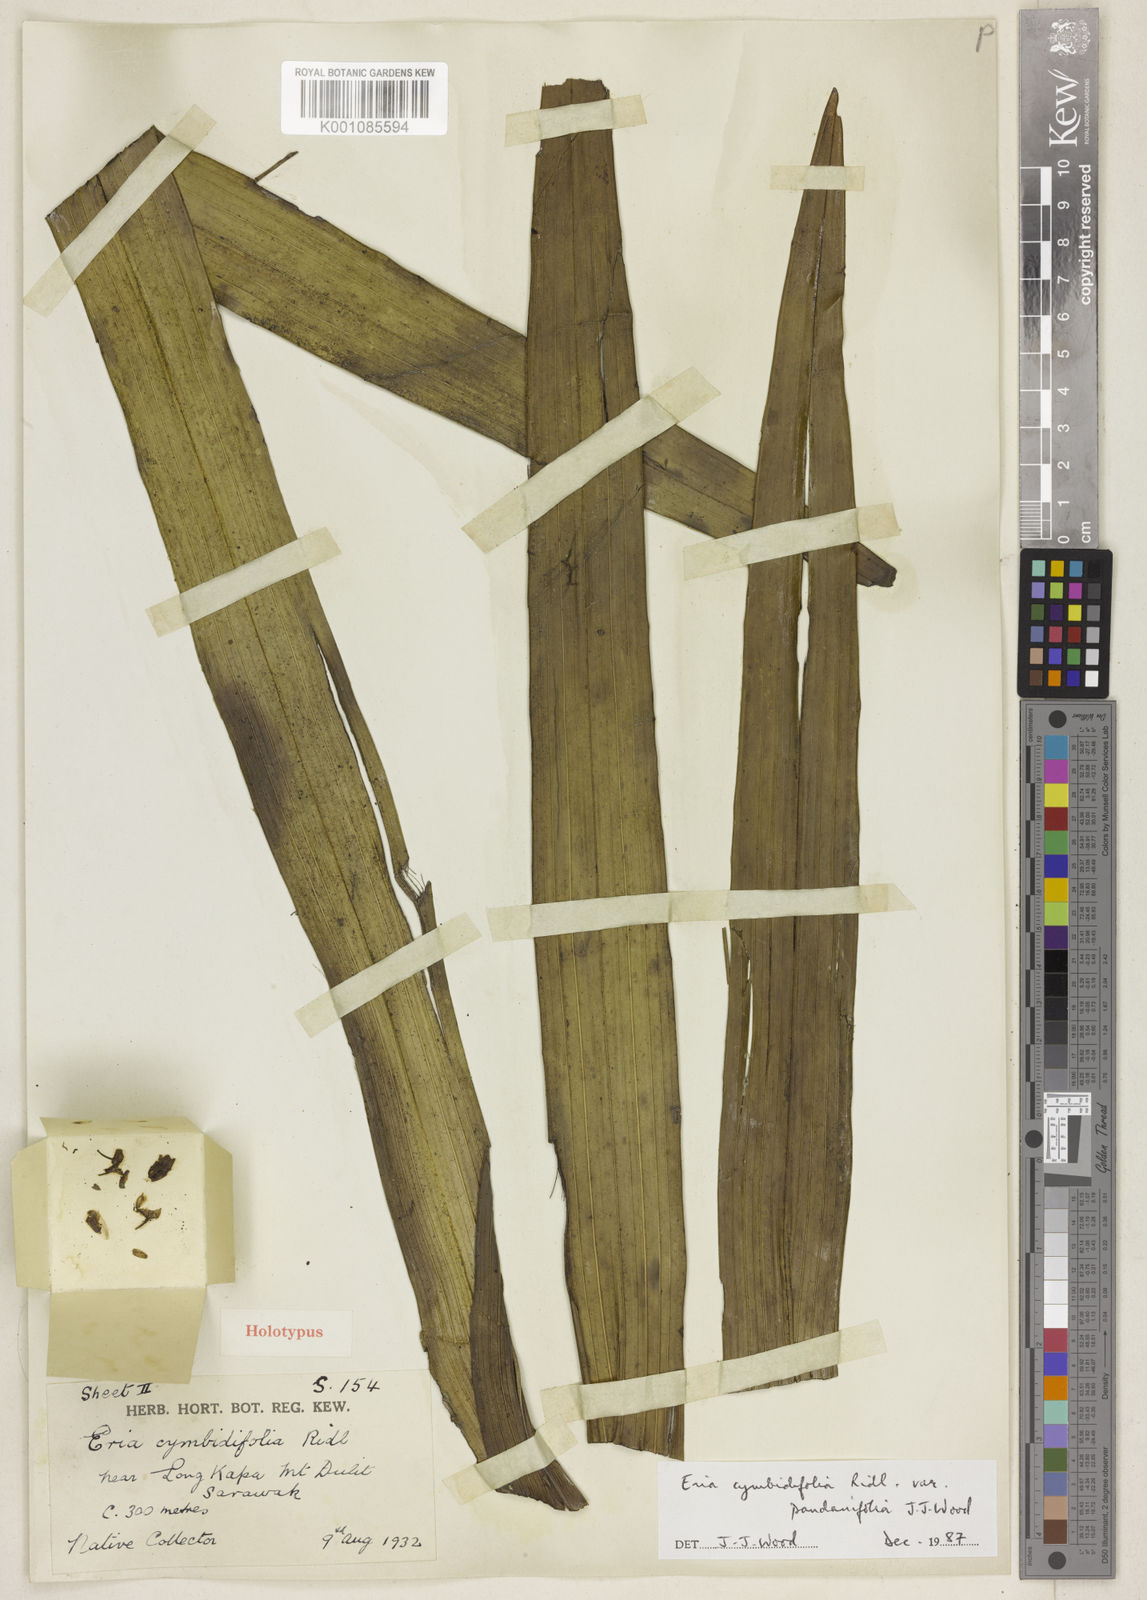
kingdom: Plantae
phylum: Tracheophyta
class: Liliopsida
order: Asparagales
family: Orchidaceae
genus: Cymboglossum
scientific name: Cymboglossum cymbidiifolium
